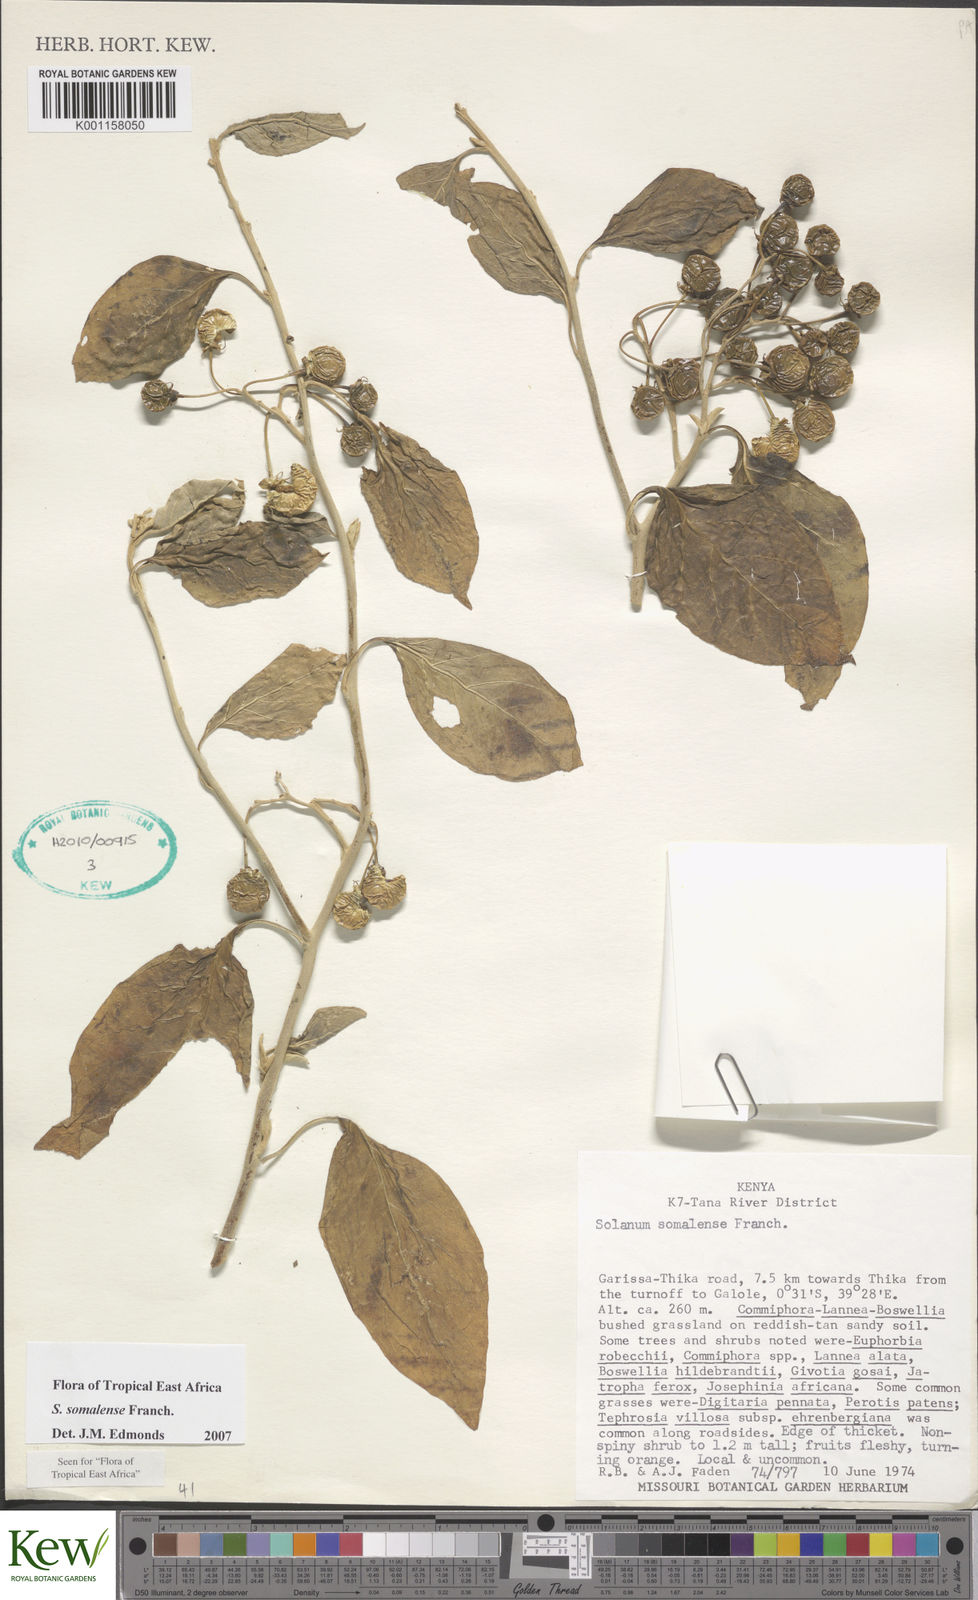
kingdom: Plantae
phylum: Tracheophyta
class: Magnoliopsida
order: Solanales
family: Solanaceae
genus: Solanum
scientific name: Solanum somalense
